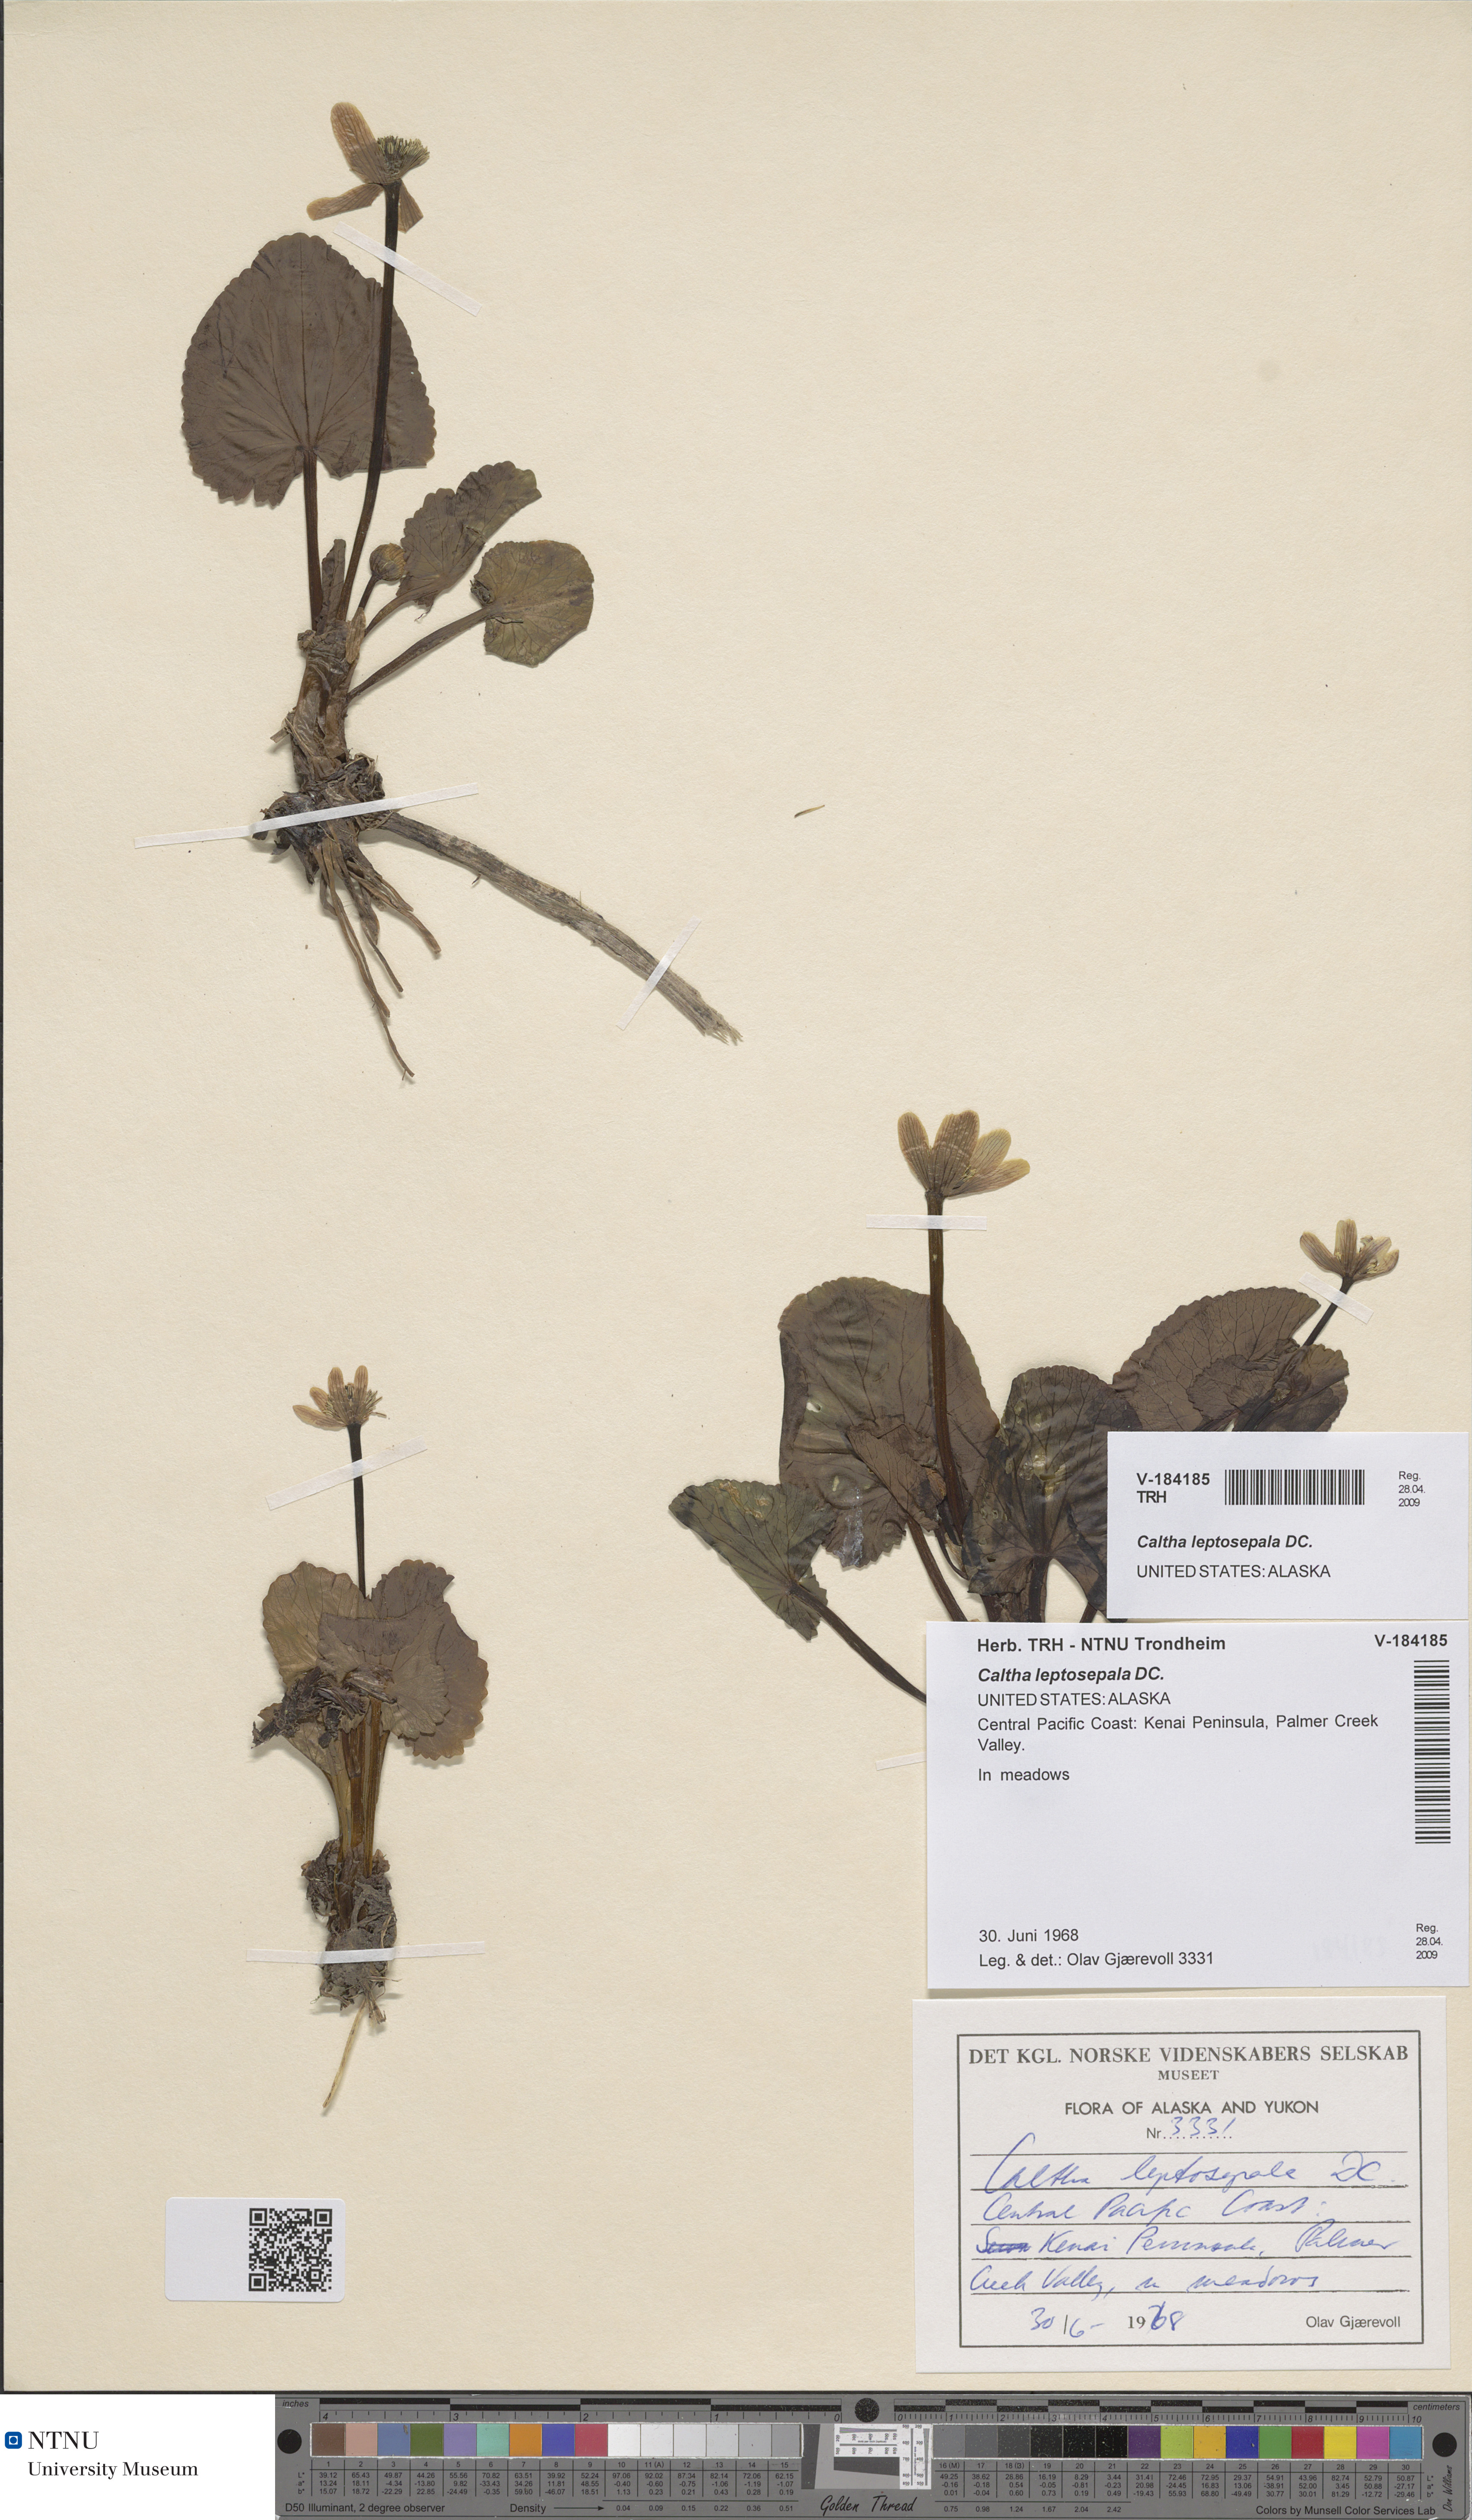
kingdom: Plantae
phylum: Tracheophyta
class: Magnoliopsida
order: Ranunculales
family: Ranunculaceae
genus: Caltha
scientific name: Caltha leptosepala
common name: Elkslip
